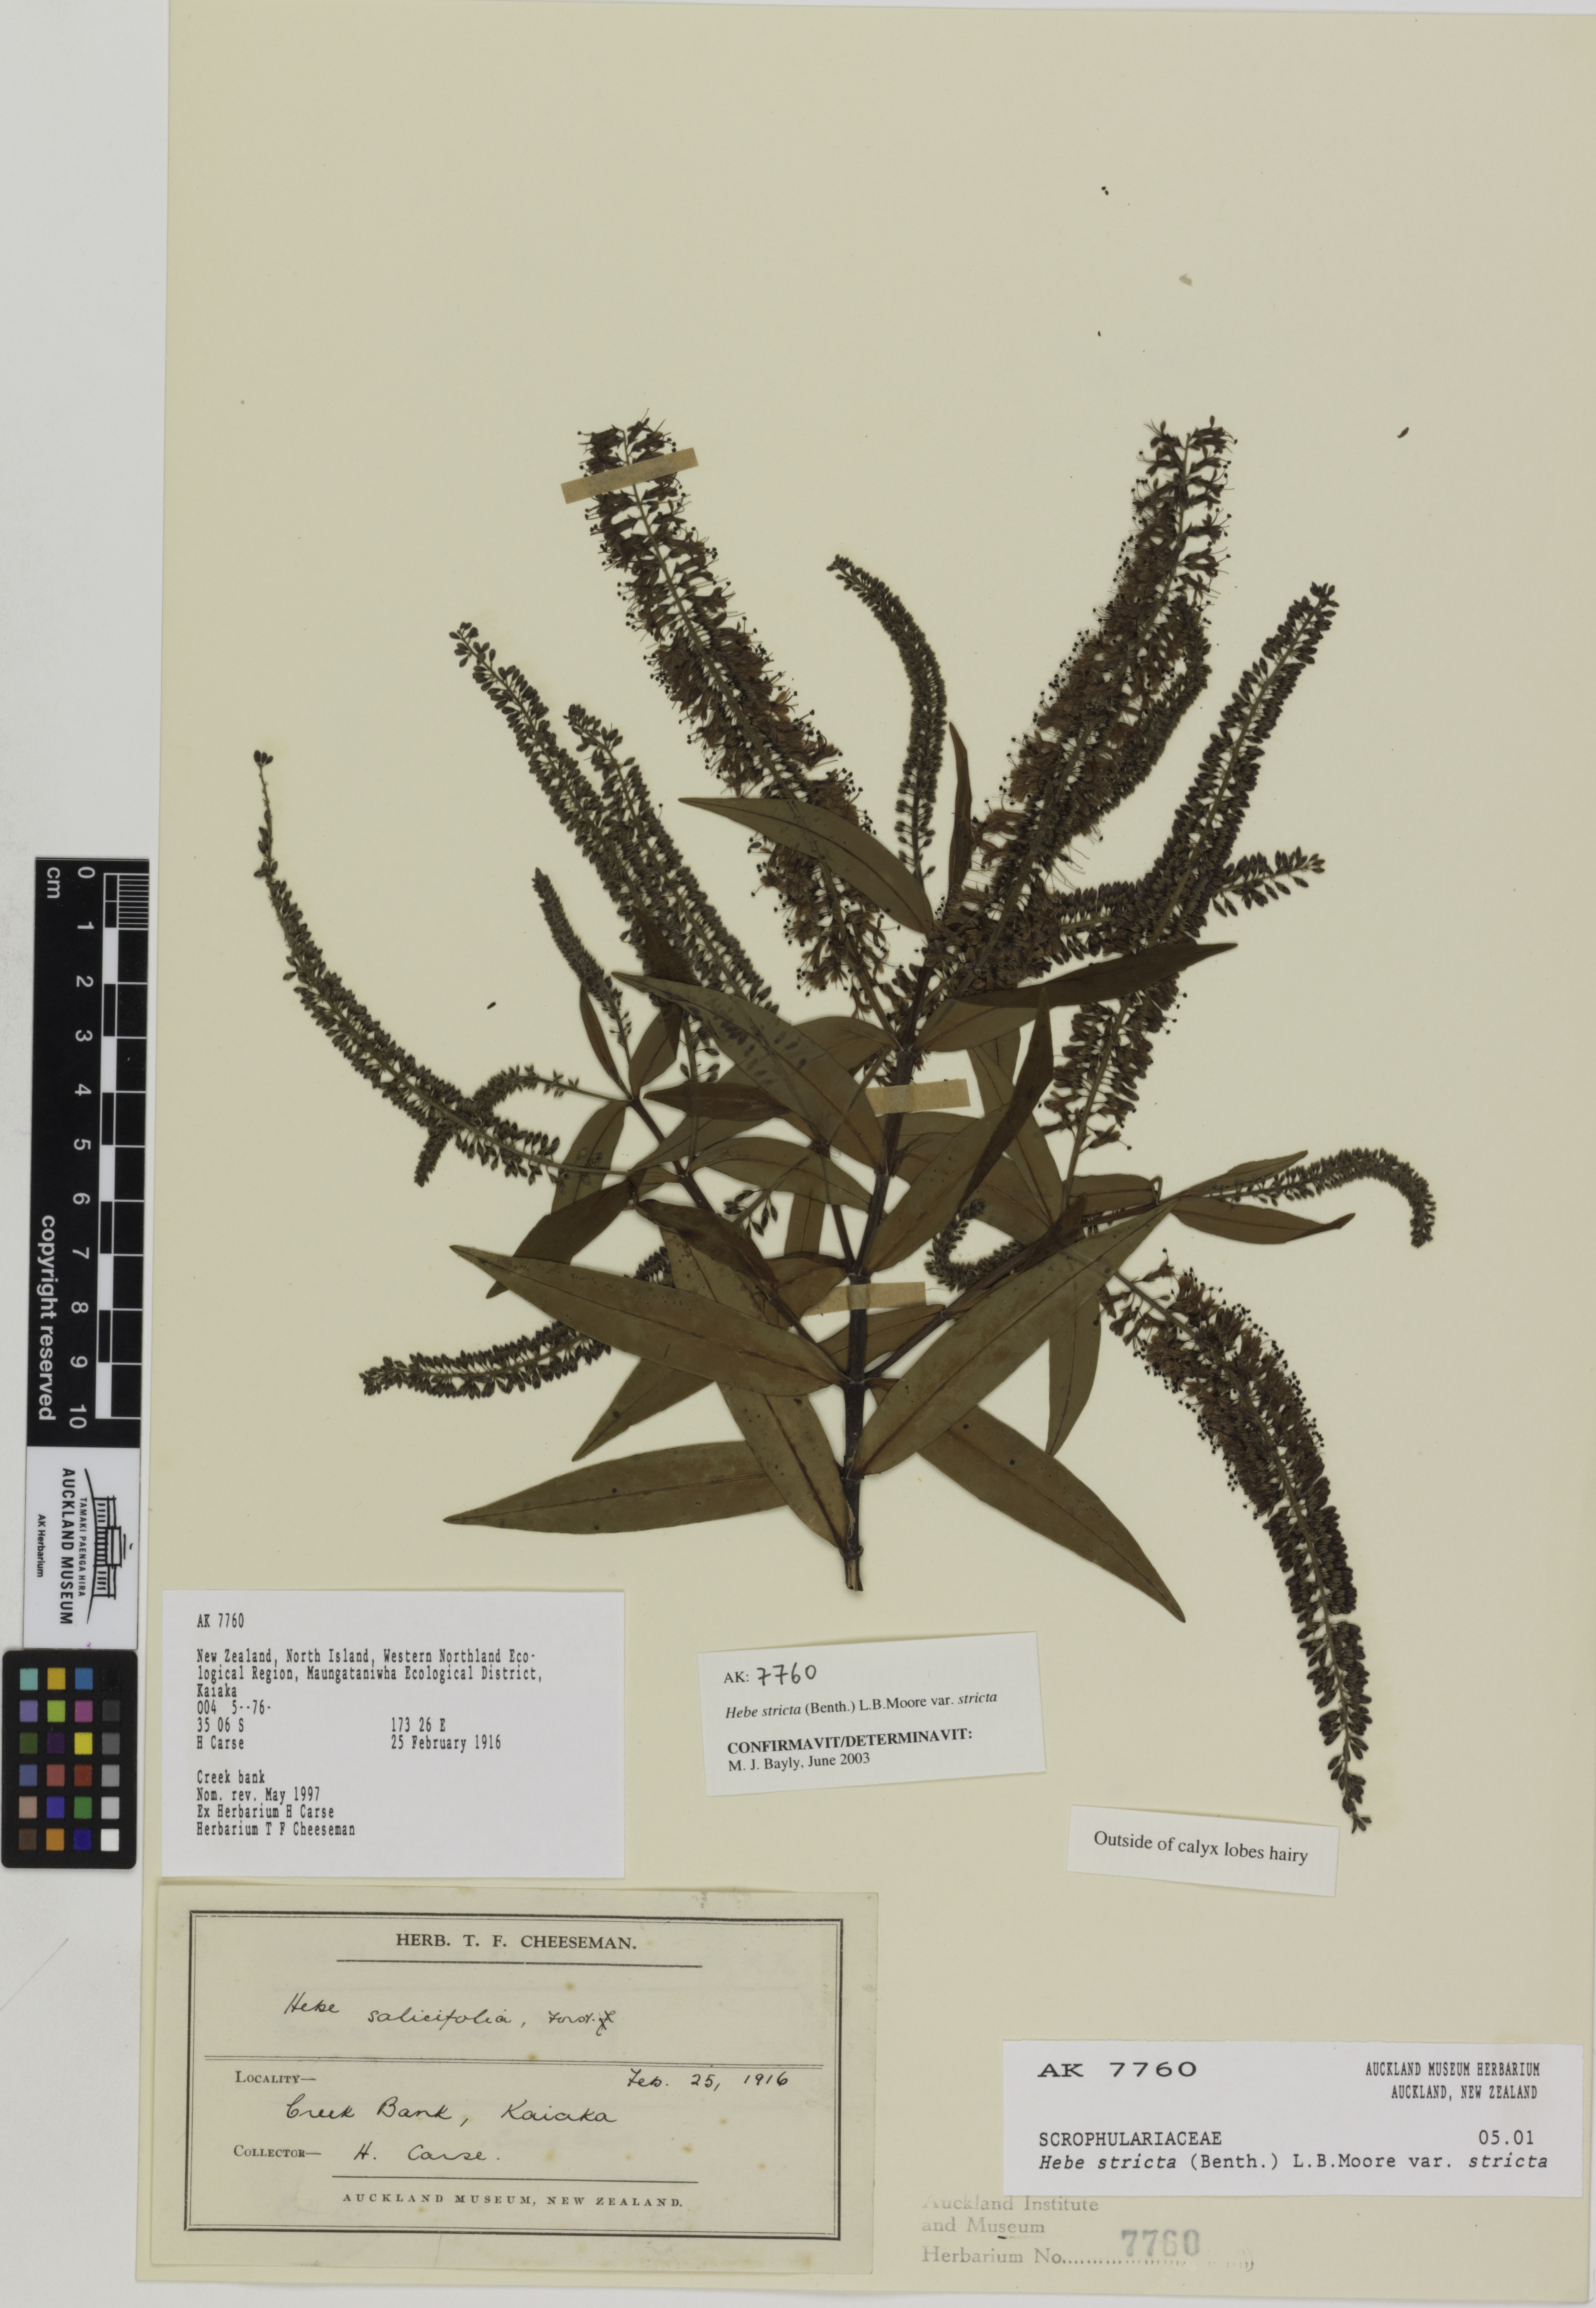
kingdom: Plantae
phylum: Tracheophyta
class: Magnoliopsida
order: Lamiales
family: Plantaginaceae
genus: Veronica
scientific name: Veronica stricta
